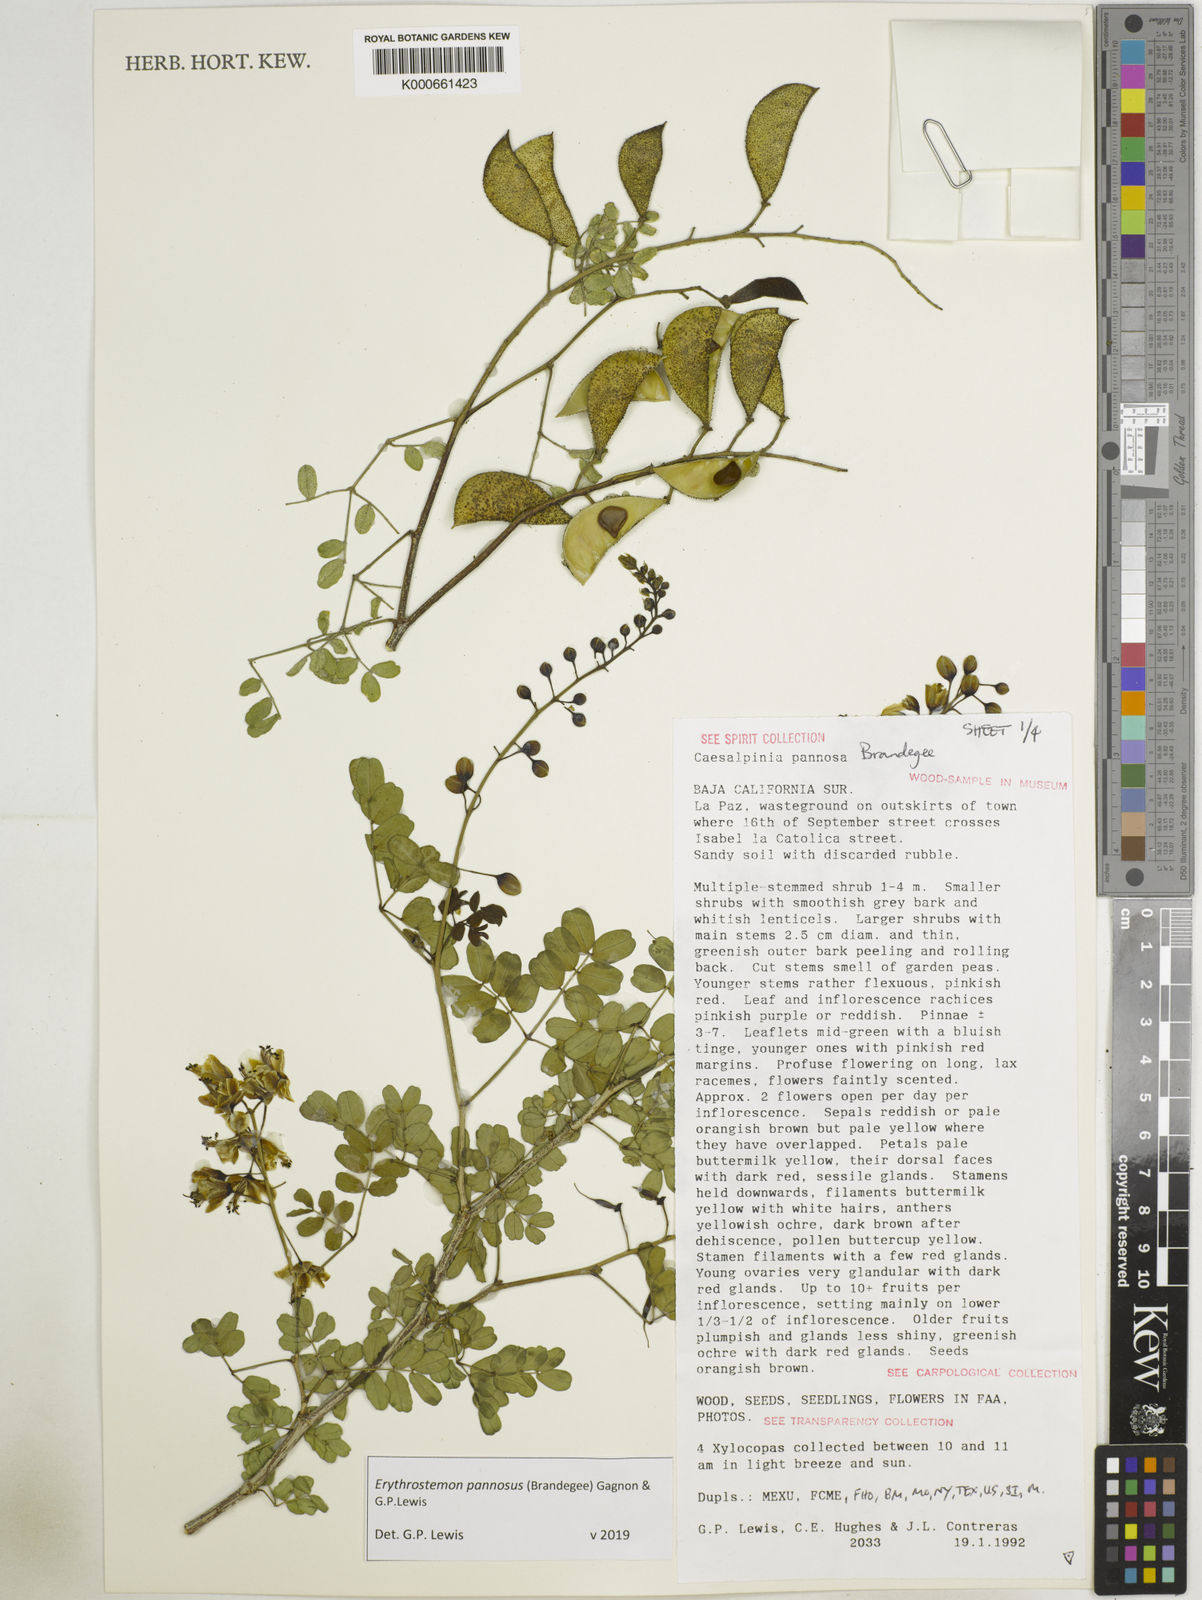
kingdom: Plantae
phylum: Tracheophyta
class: Magnoliopsida
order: Fabales
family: Fabaceae
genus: Erythrostemon
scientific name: Erythrostemon pannosus
